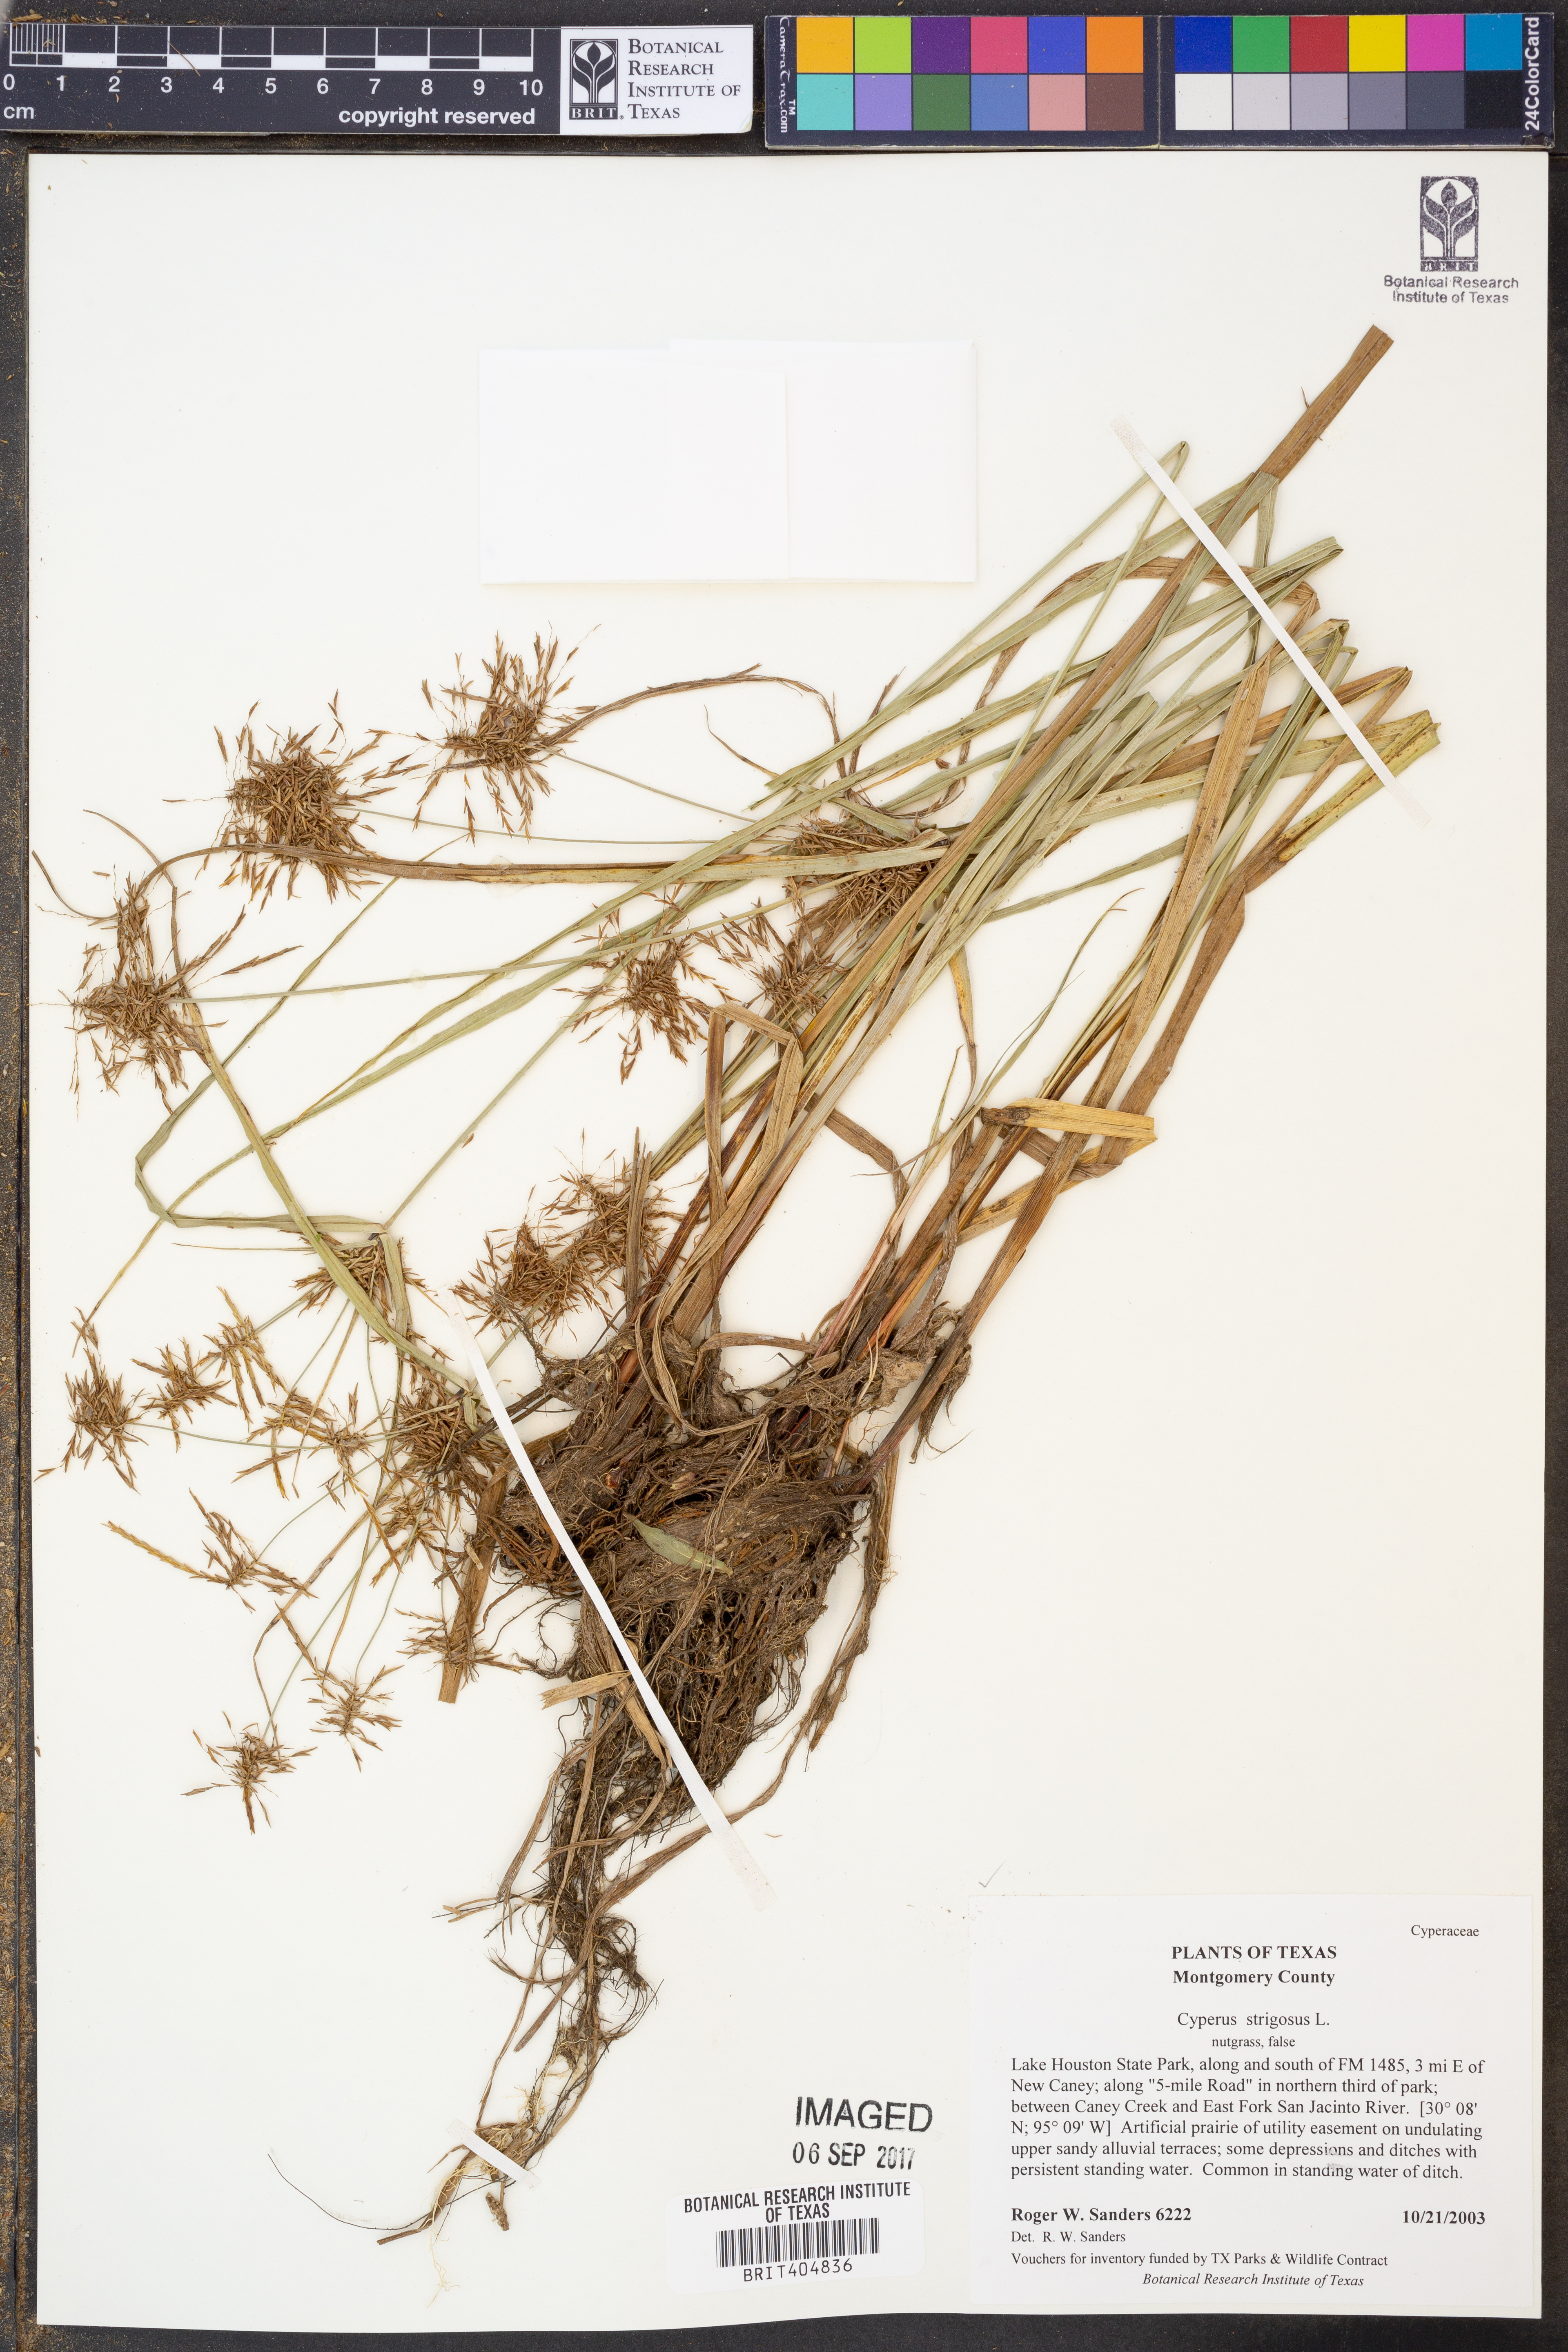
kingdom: Plantae
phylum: Tracheophyta
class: Liliopsida
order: Poales
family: Cyperaceae
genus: Cyperus
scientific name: Cyperus strigosus
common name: False nutsedge
